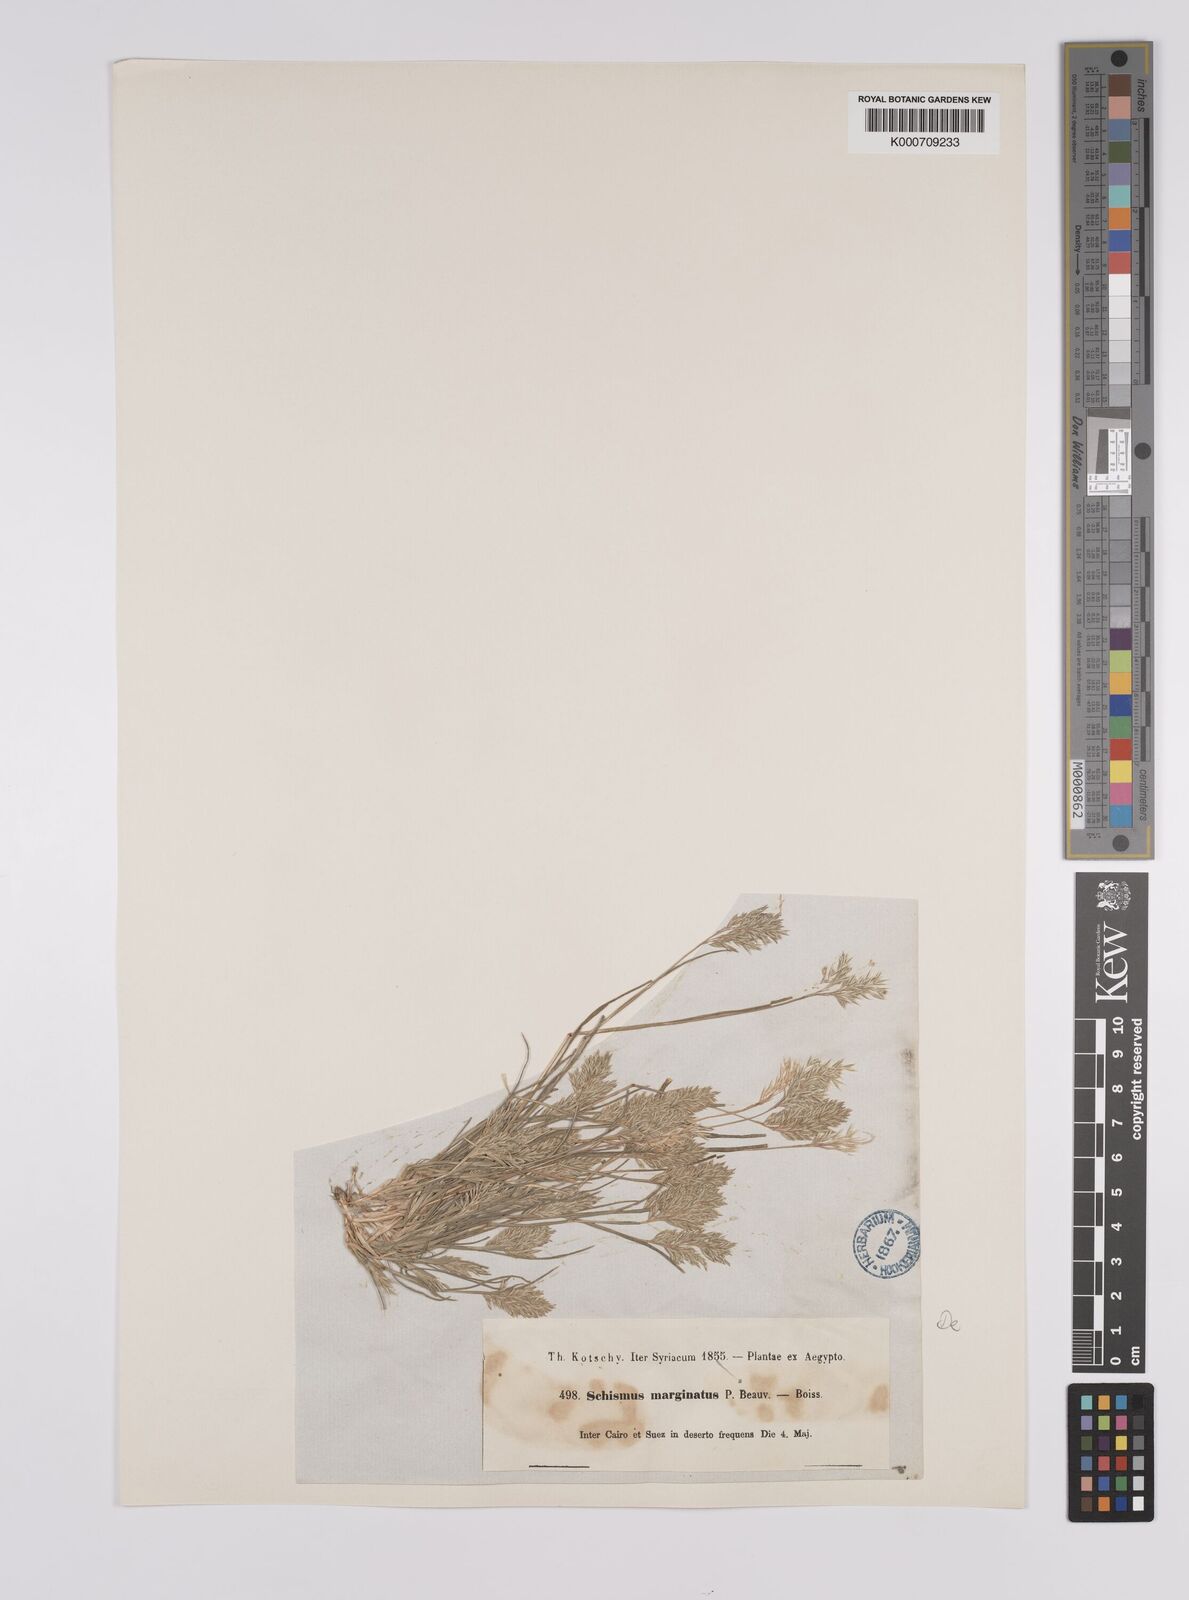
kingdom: Plantae
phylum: Tracheophyta
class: Liliopsida
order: Poales
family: Poaceae
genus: Schismus
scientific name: Schismus barbatus
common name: Kelch-grass
